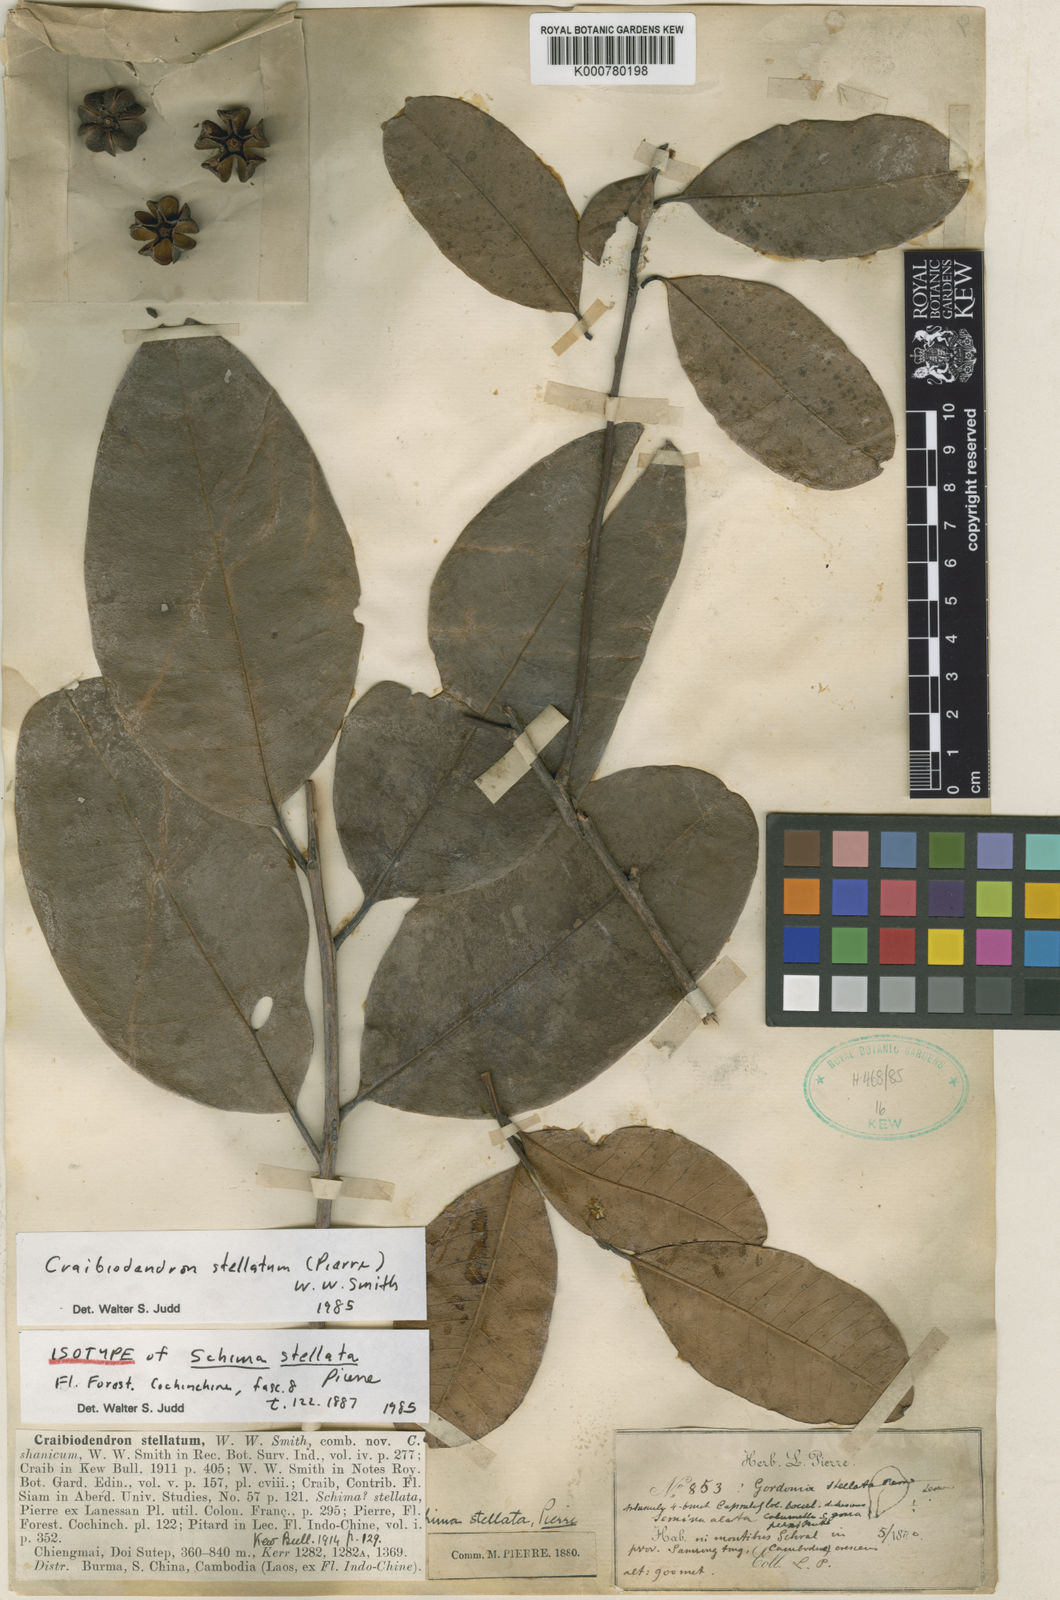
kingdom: Plantae
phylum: Tracheophyta
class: Magnoliopsida
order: Ericales
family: Ericaceae
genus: Craibiodendron
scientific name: Craibiodendron stellatum
